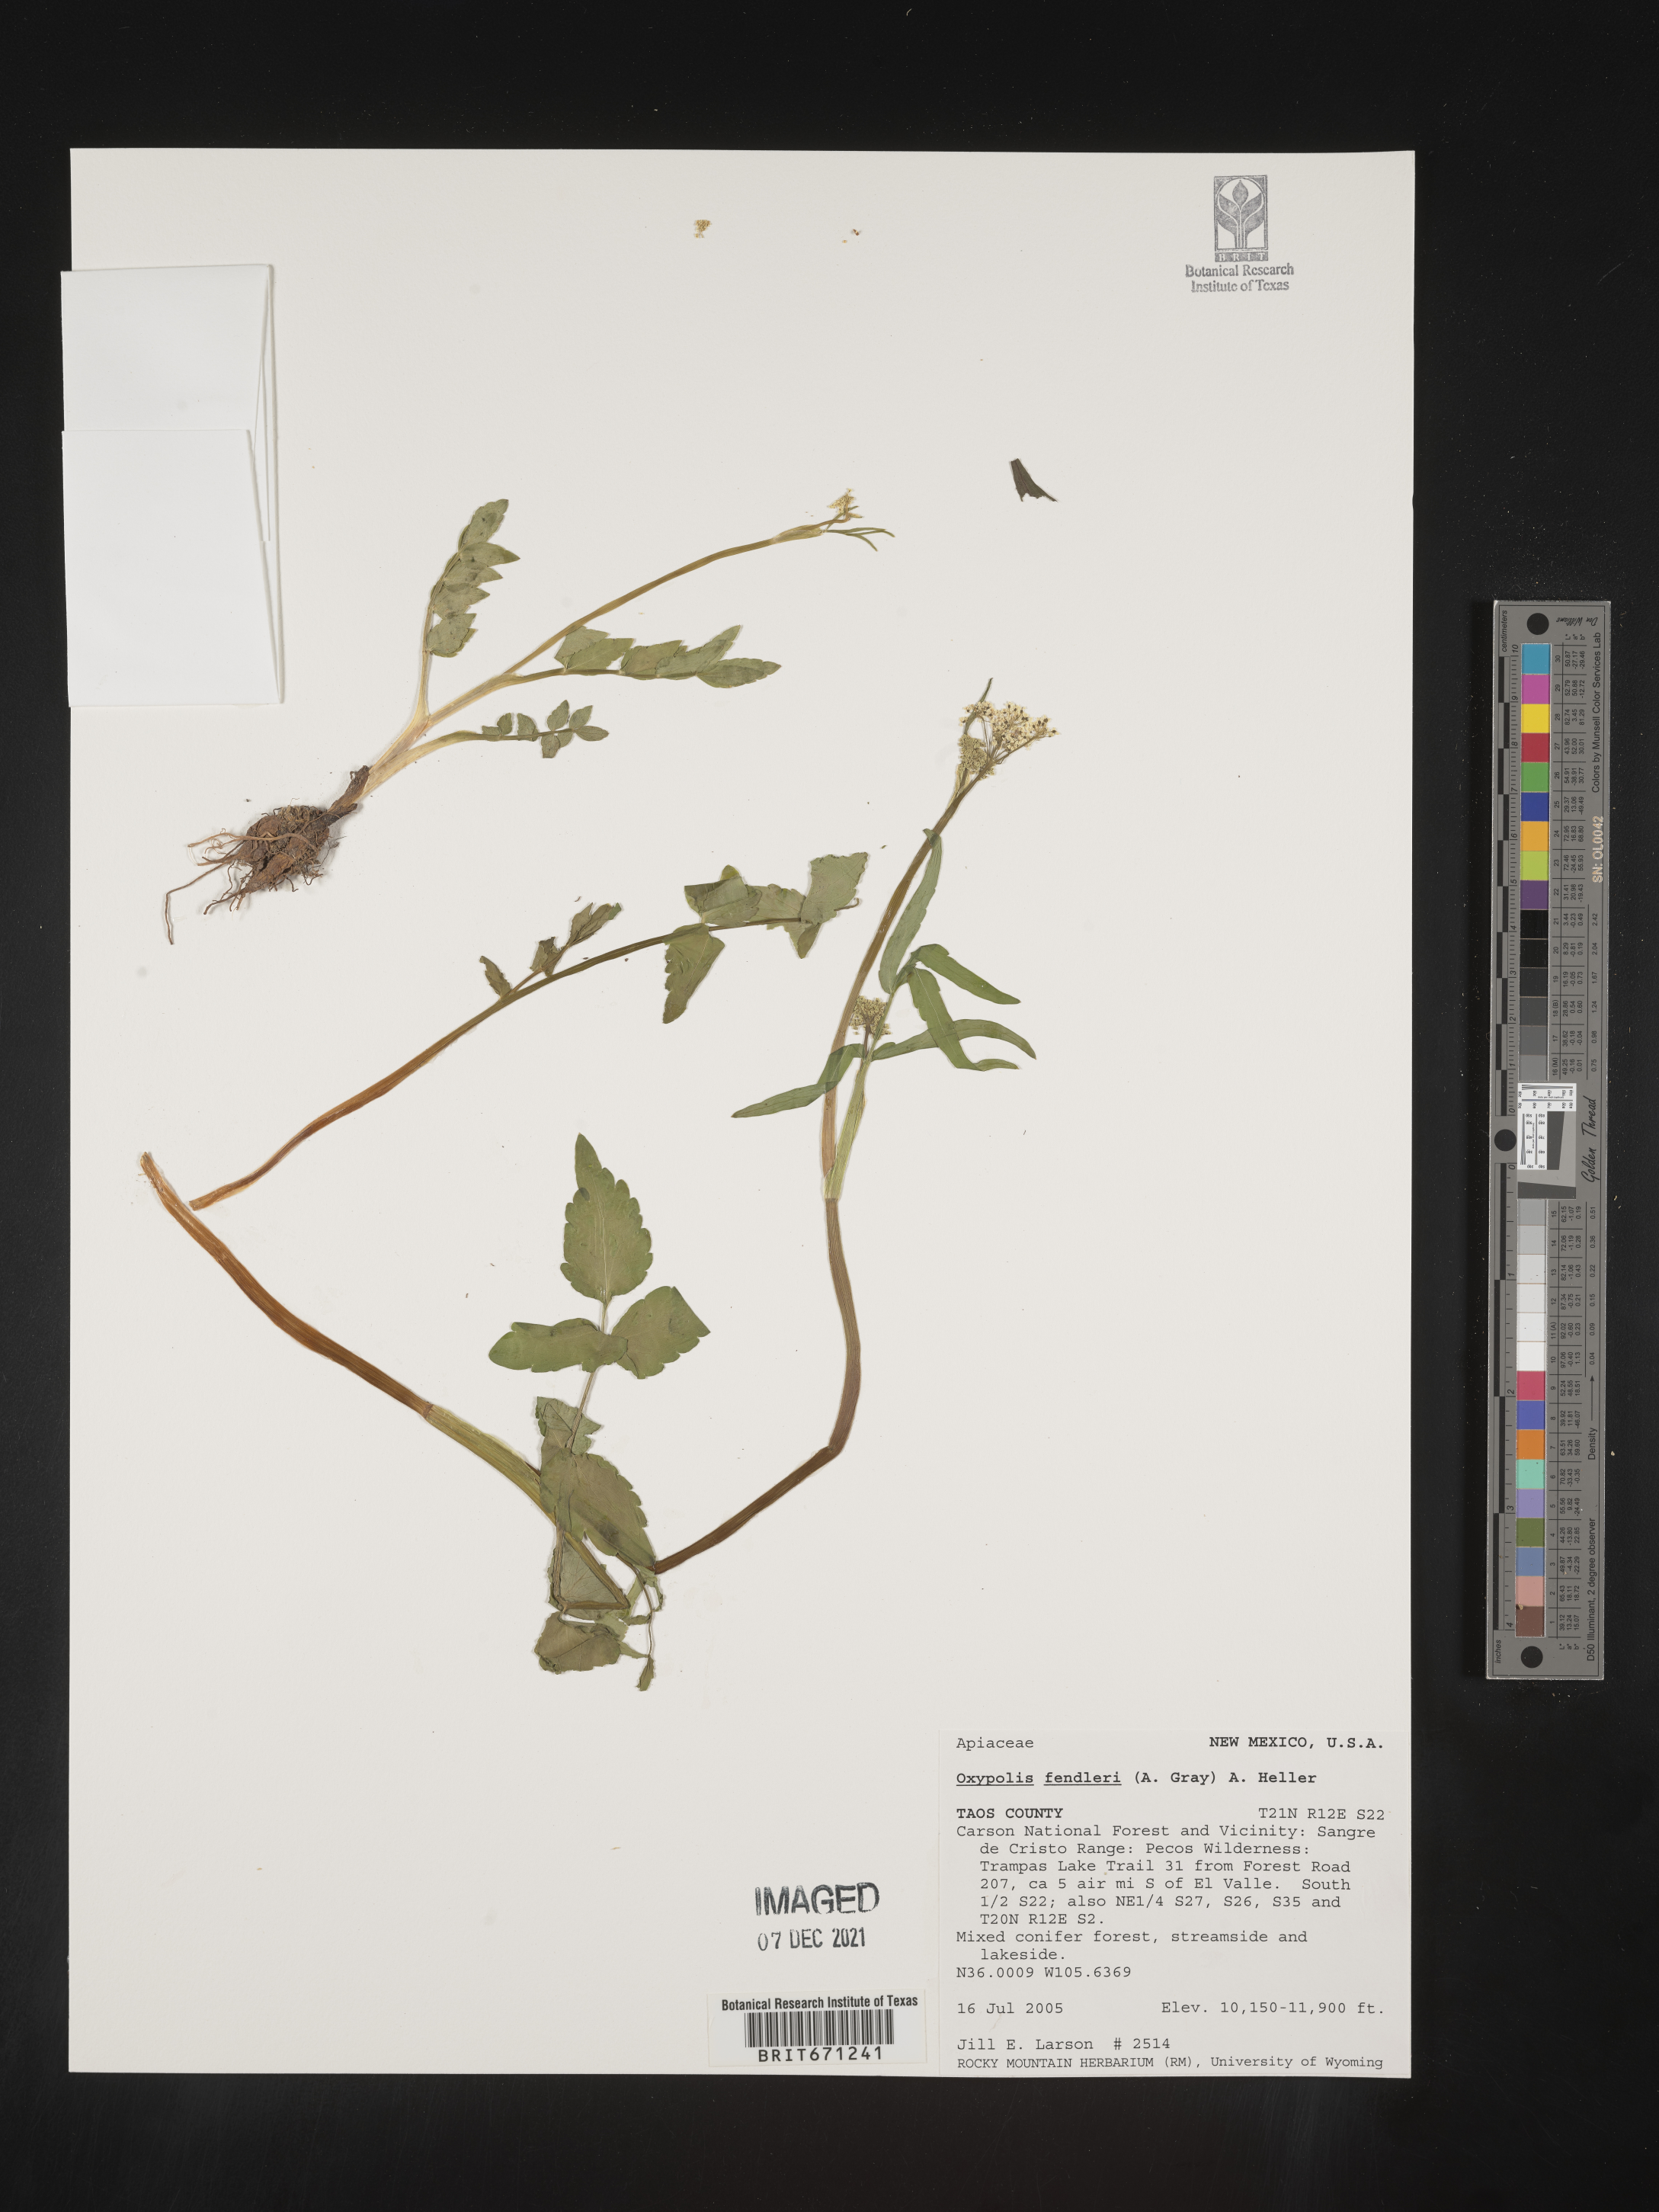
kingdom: Plantae
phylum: Tracheophyta
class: Magnoliopsida
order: Apiales
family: Apiaceae
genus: Oxypolis
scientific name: Oxypolis fendleri
